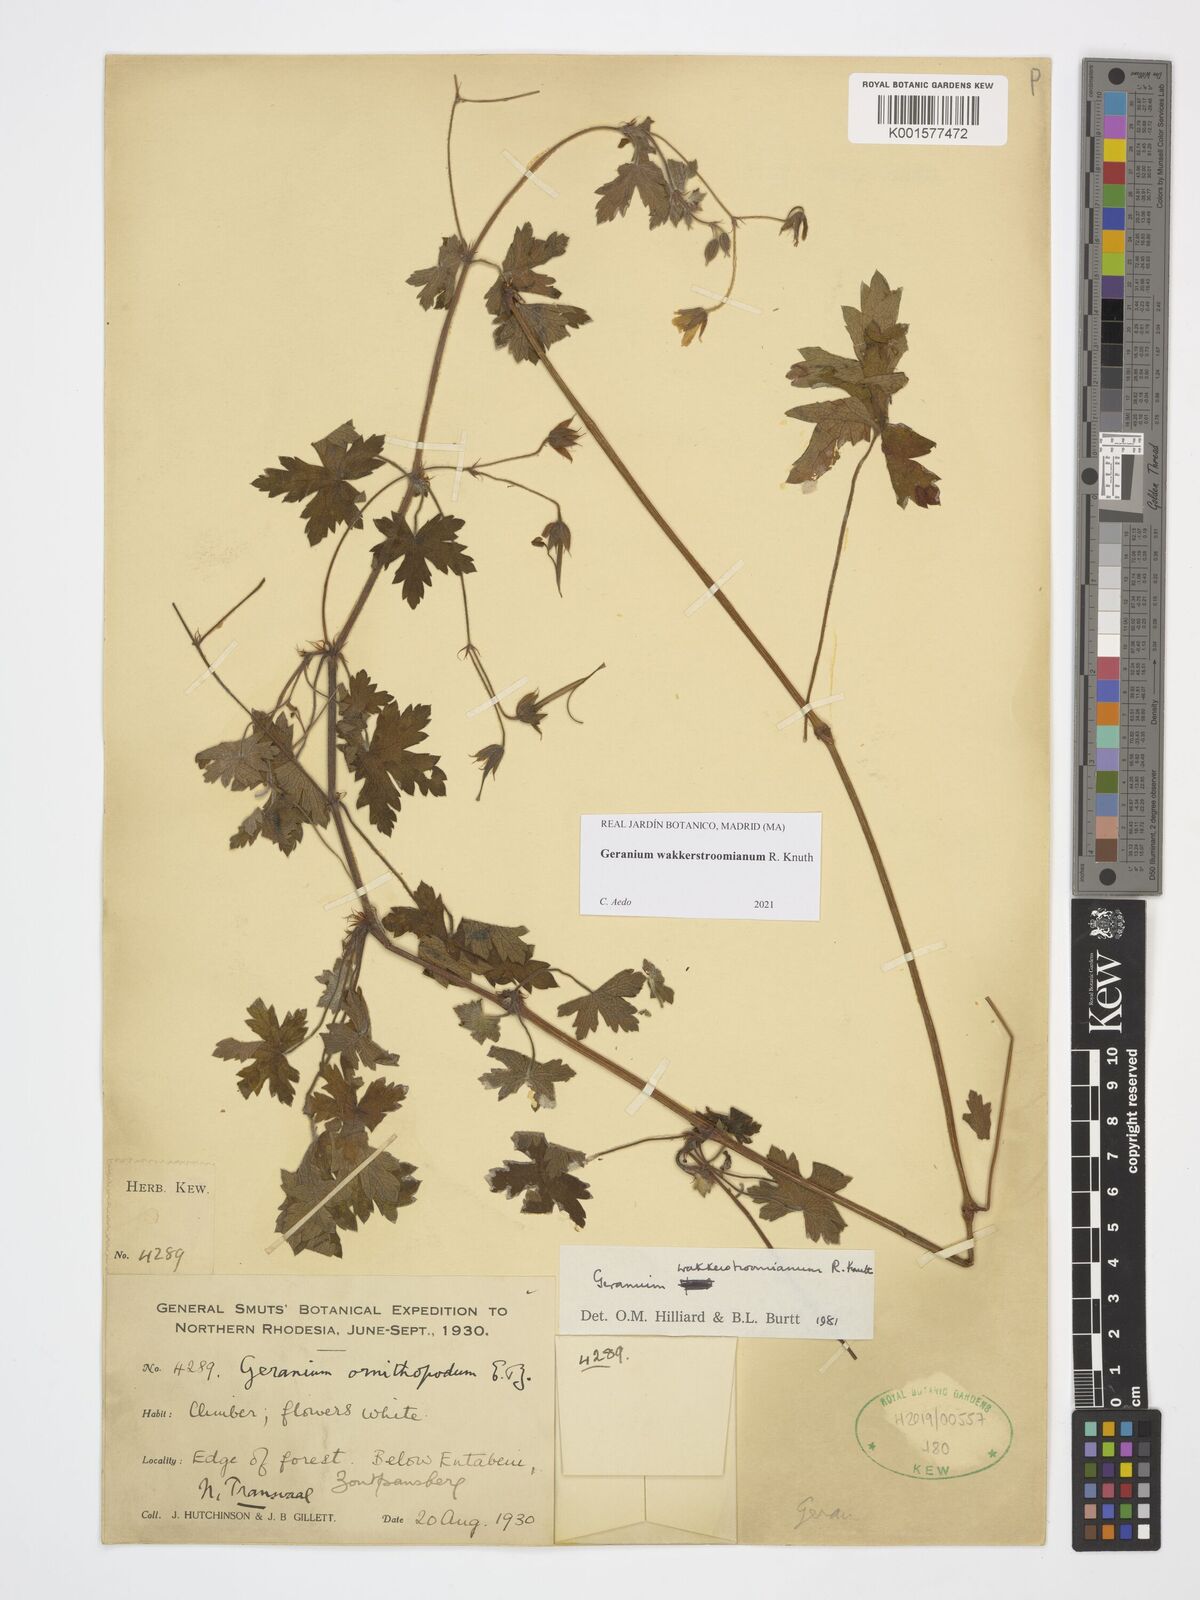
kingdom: Plantae
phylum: Tracheophyta
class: Magnoliopsida
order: Geraniales
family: Geraniaceae
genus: Geranium
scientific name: Geranium wakkerstroomianum
